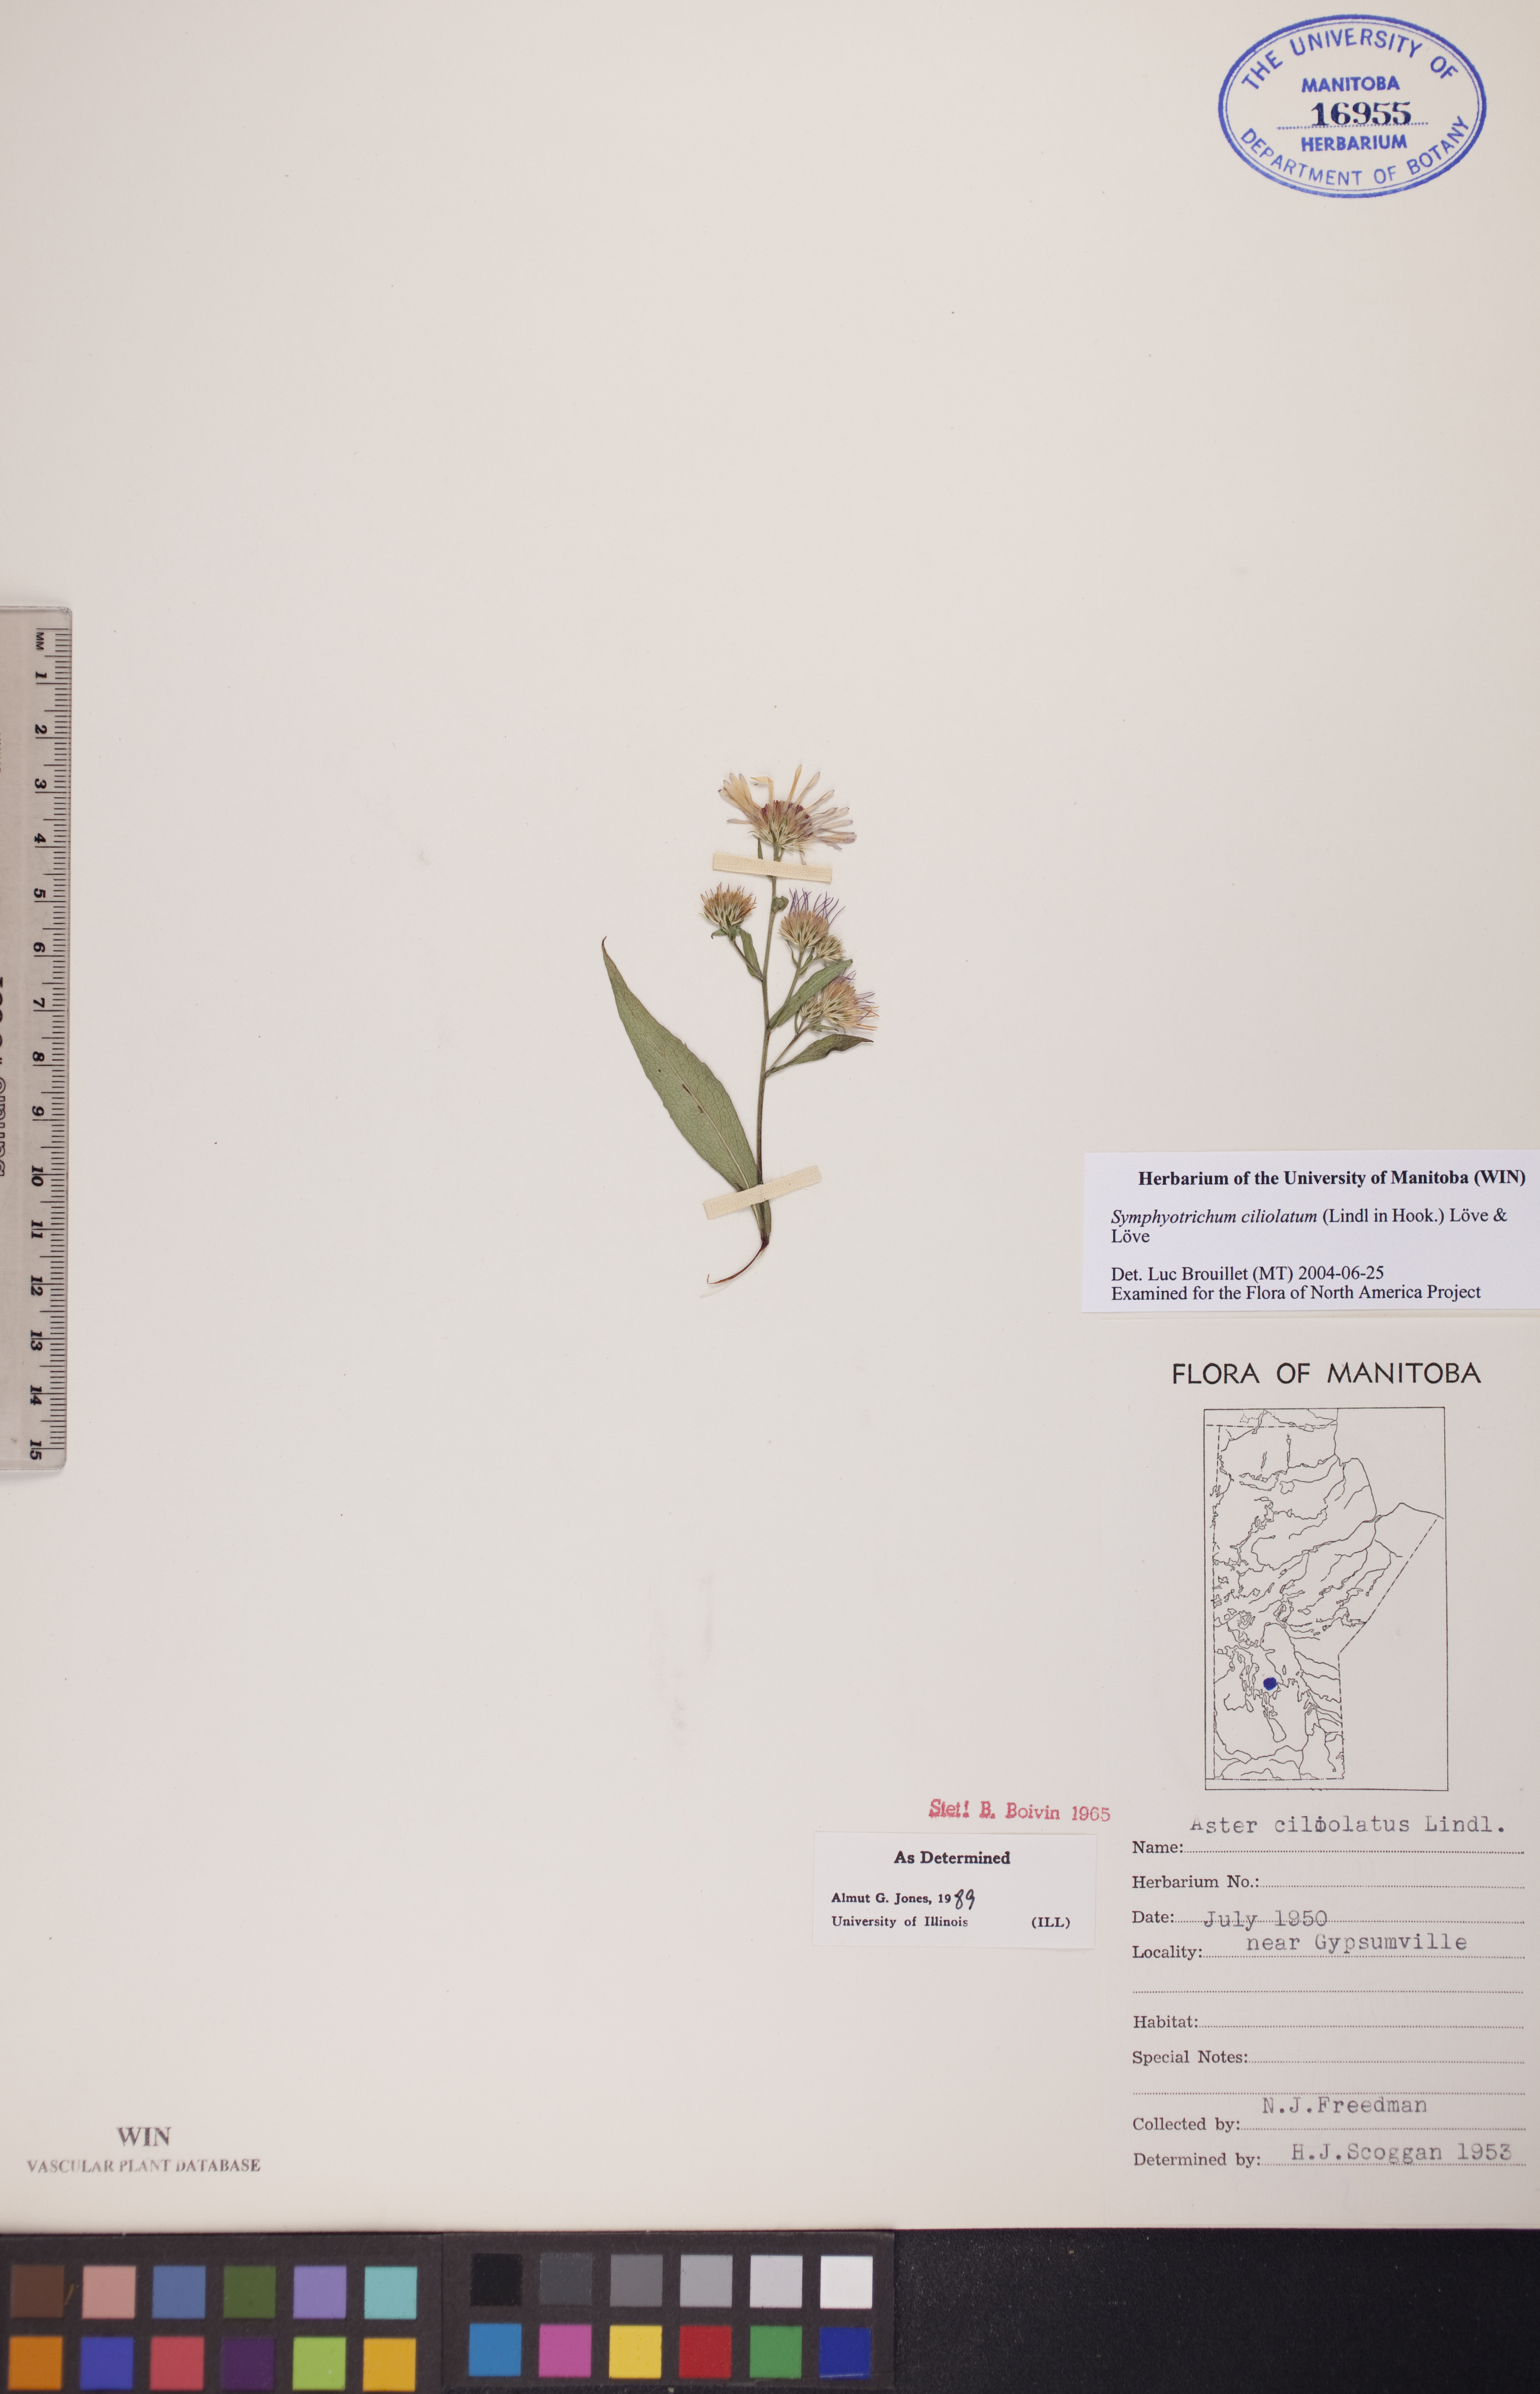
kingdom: Plantae
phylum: Tracheophyta
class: Magnoliopsida
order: Asterales
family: Asteraceae
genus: Symphyotrichum
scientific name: Symphyotrichum ciliolatum
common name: Fringed blue aster
